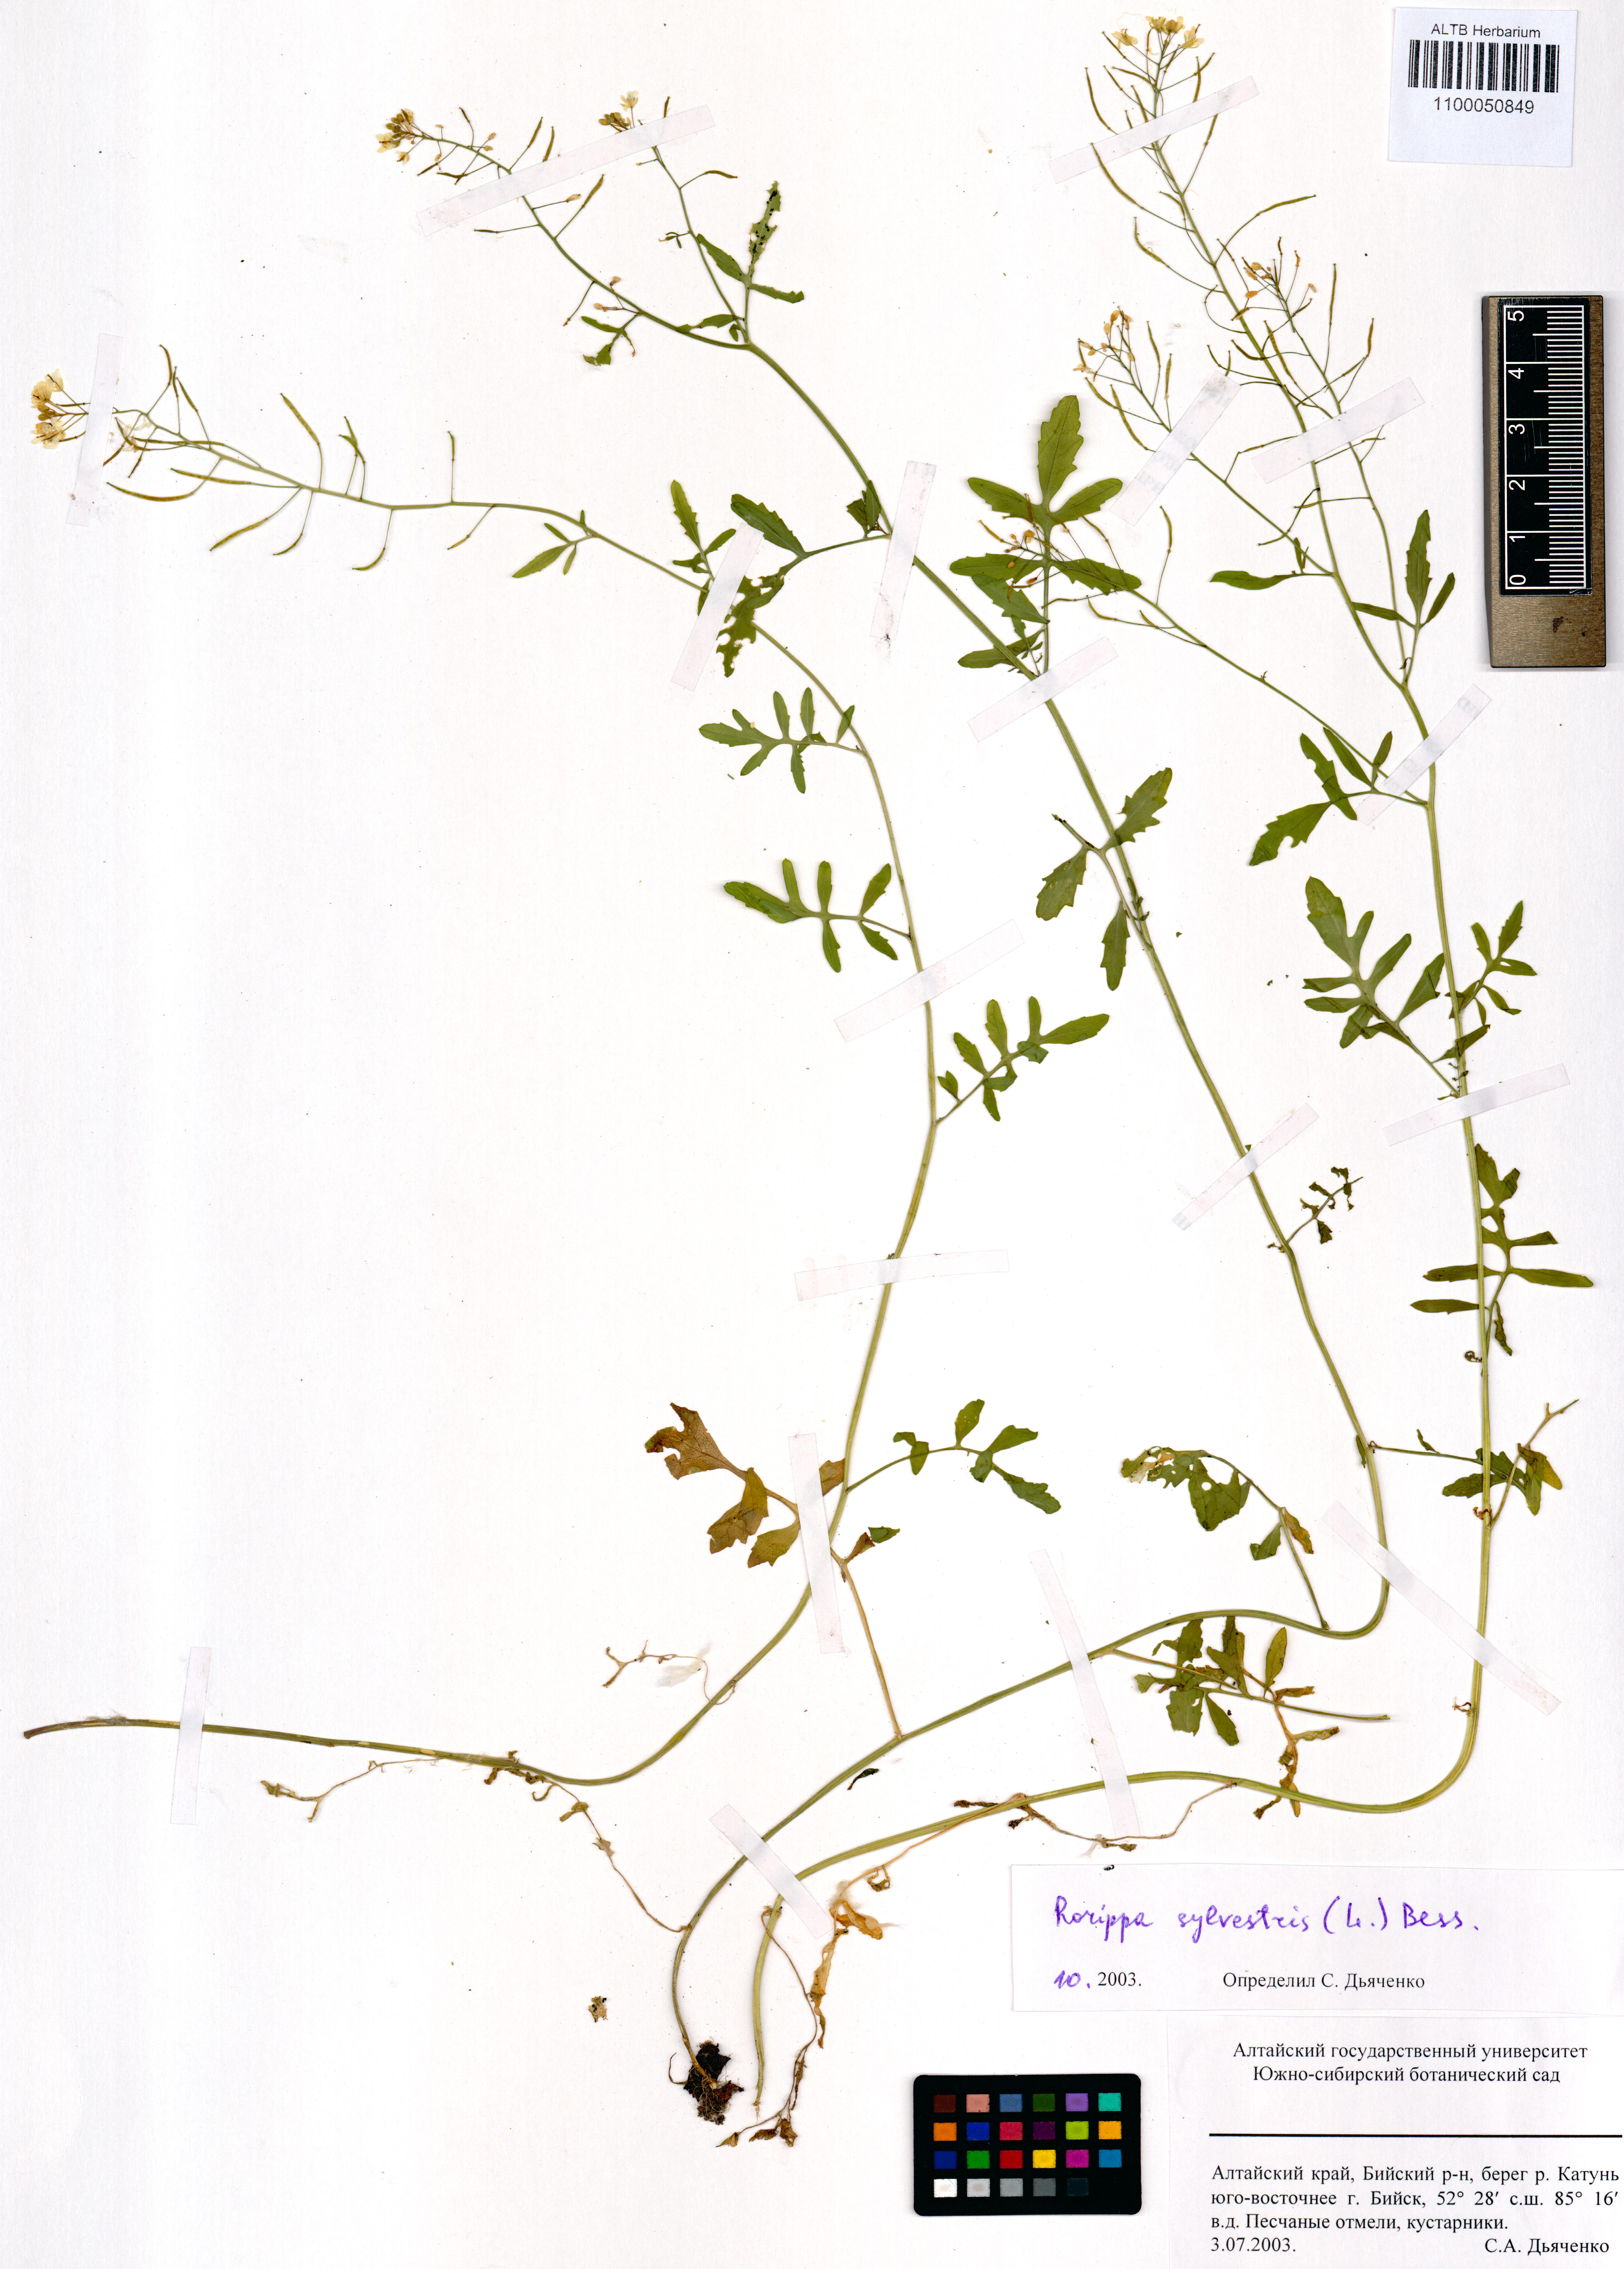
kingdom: Plantae
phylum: Tracheophyta
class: Magnoliopsida
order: Brassicales
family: Brassicaceae
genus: Rorippa
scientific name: Rorippa sylvestris
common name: Creeping yellowcress
